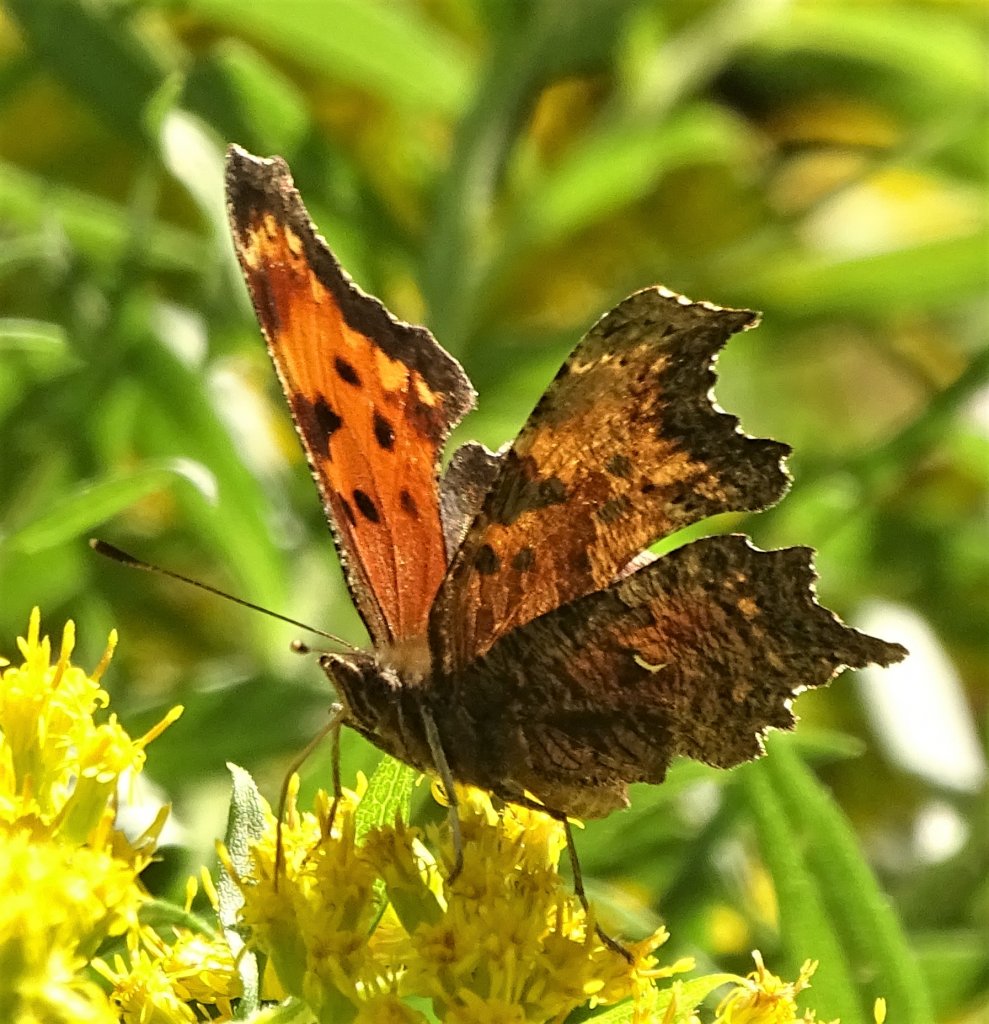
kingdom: Animalia
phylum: Arthropoda
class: Insecta
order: Lepidoptera
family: Nymphalidae
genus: Polygonia
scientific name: Polygonia comma
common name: Eastern Comma
